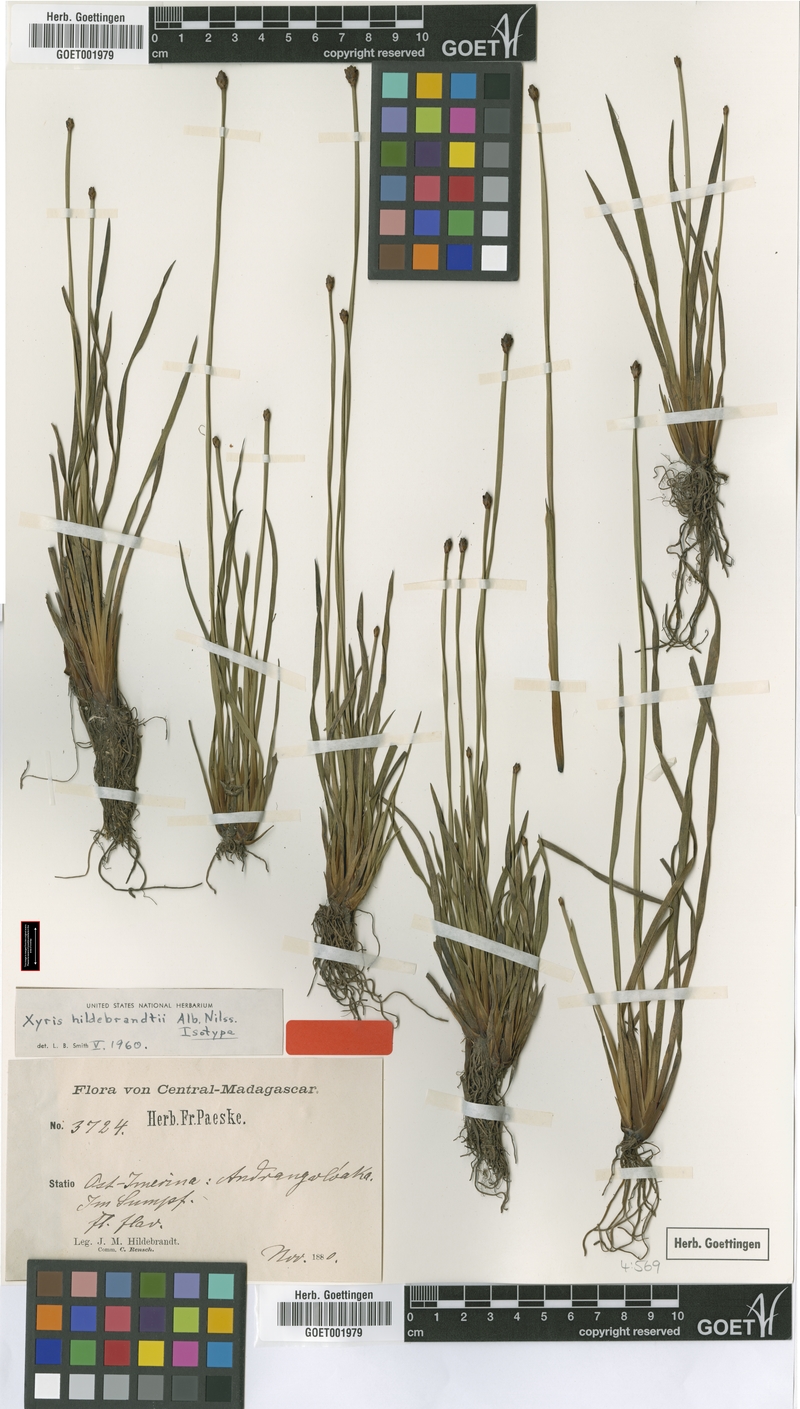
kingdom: Plantae
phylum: Tracheophyta
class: Liliopsida
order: Poales
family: Xyridaceae
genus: Xyris
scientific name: Xyris congensis
